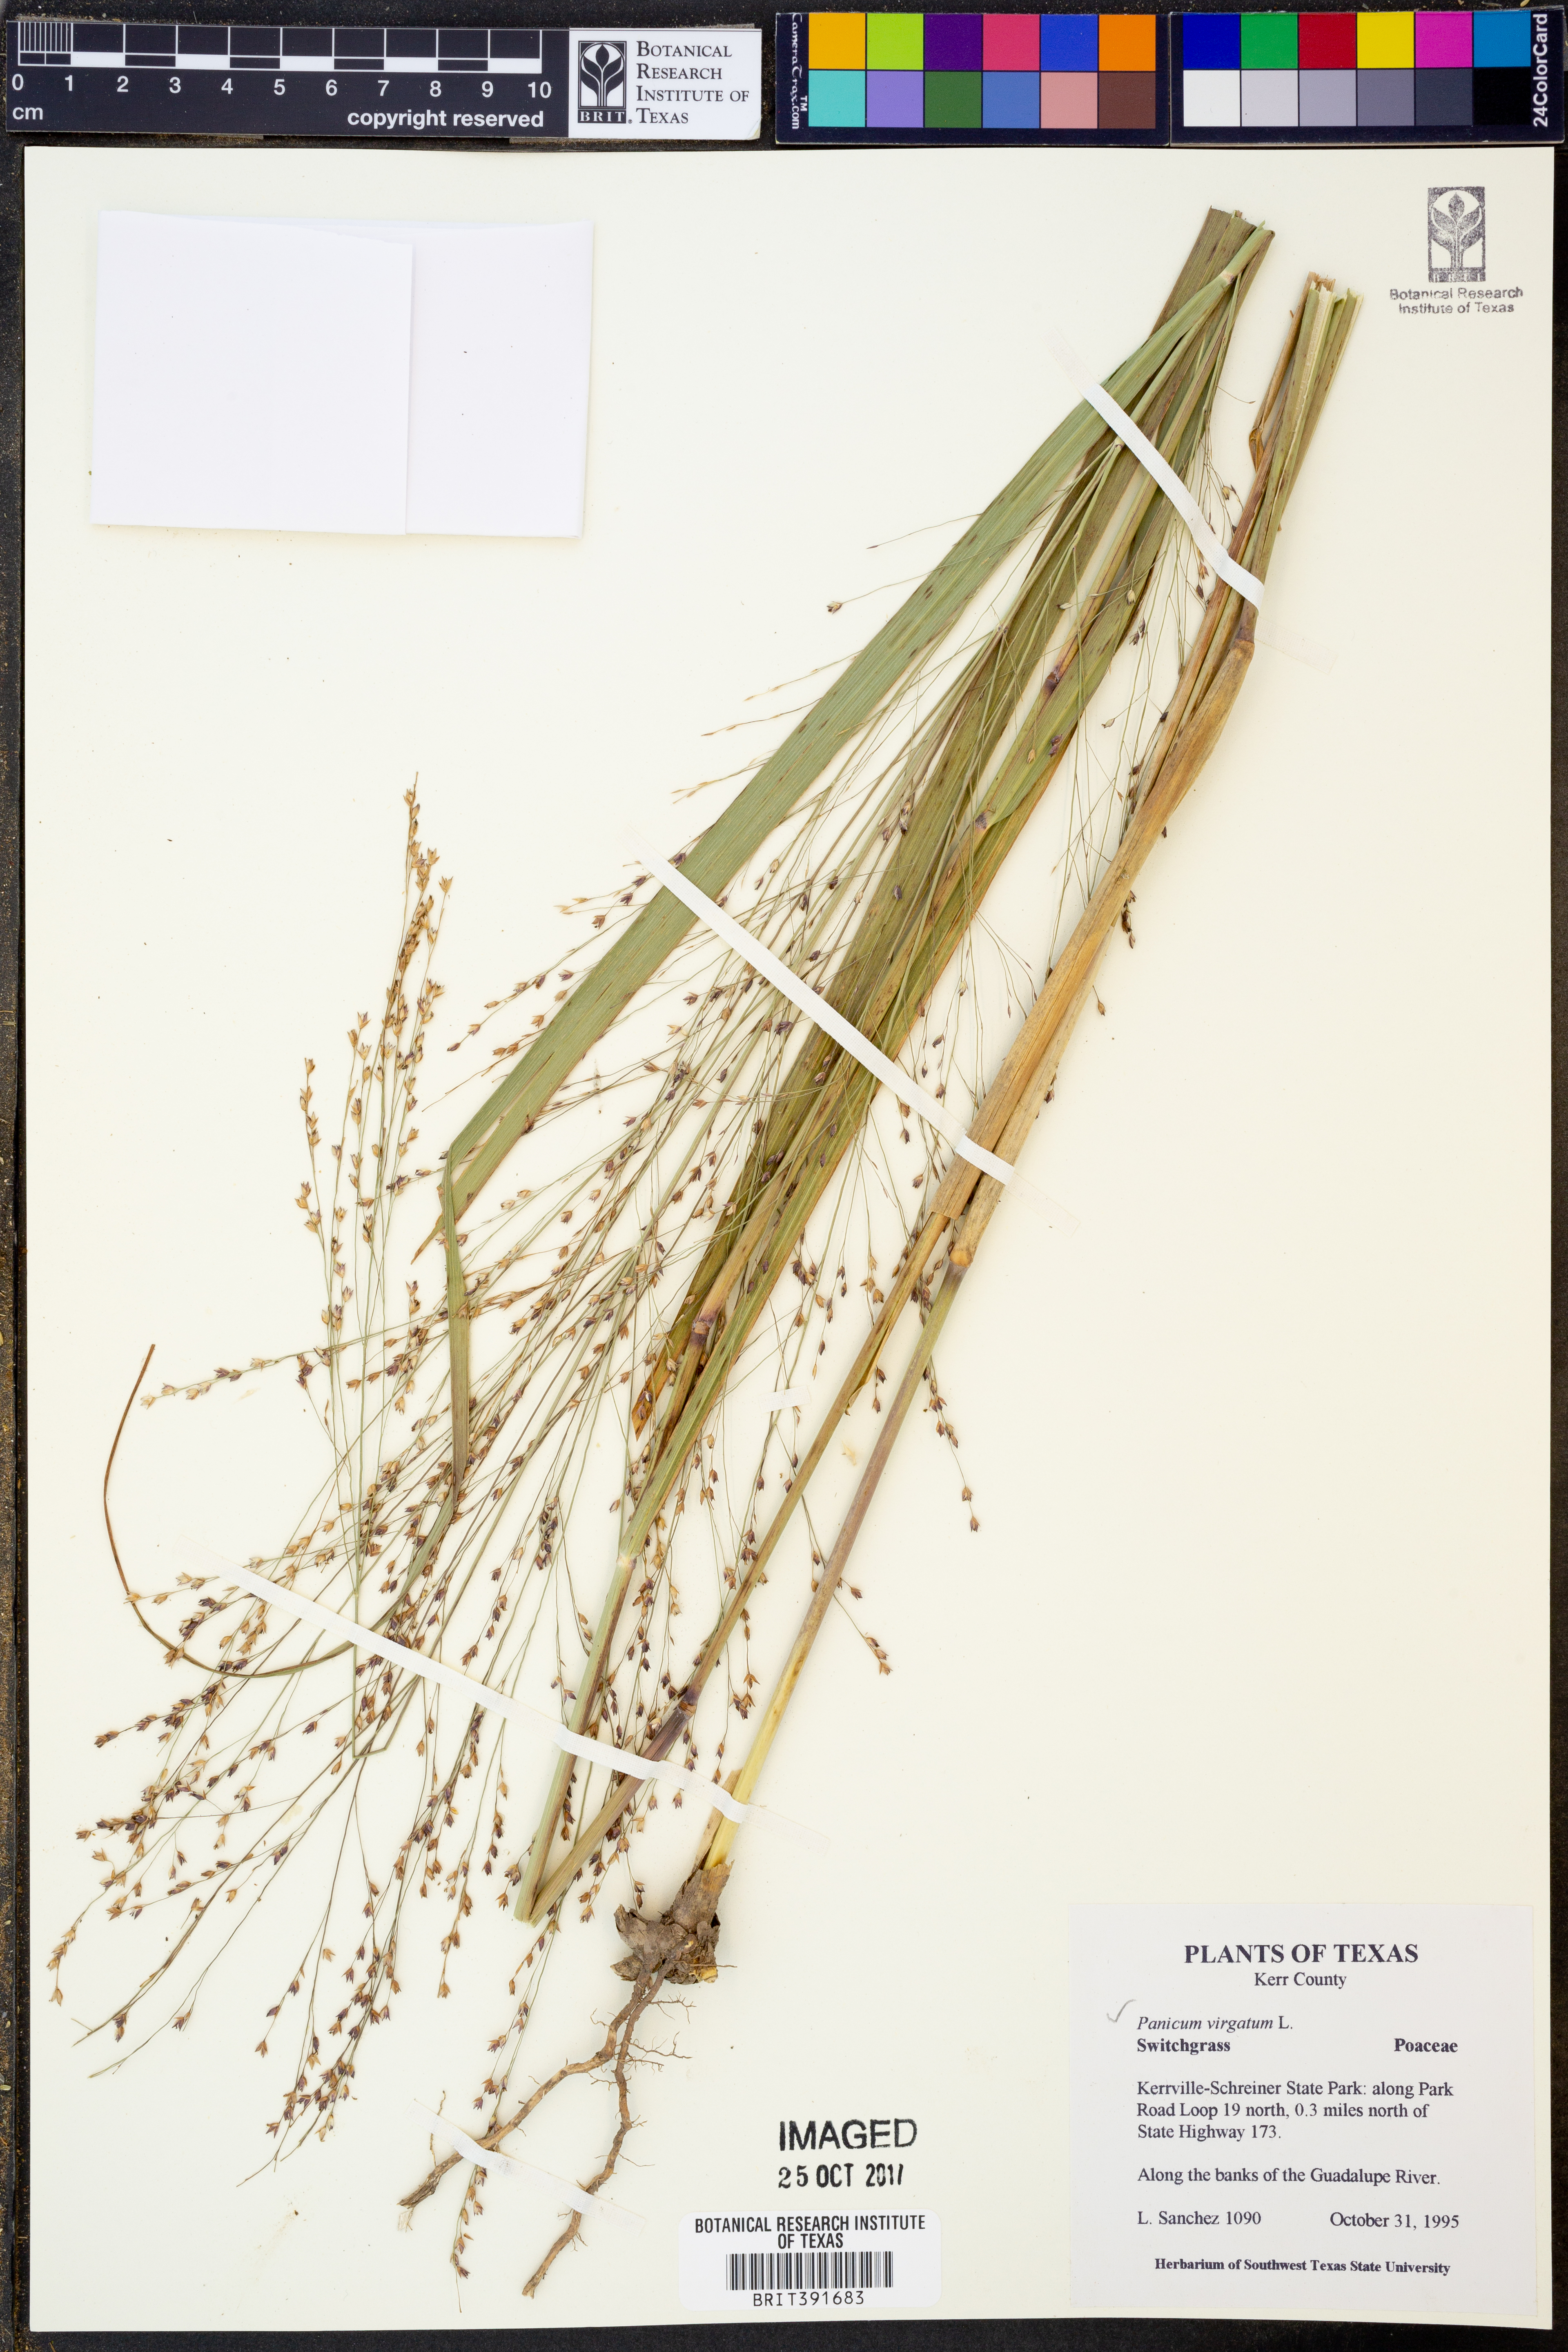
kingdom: Plantae
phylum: Tracheophyta
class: Liliopsida
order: Poales
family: Poaceae
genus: Panicum
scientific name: Panicum virgatum
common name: Switchgrass
